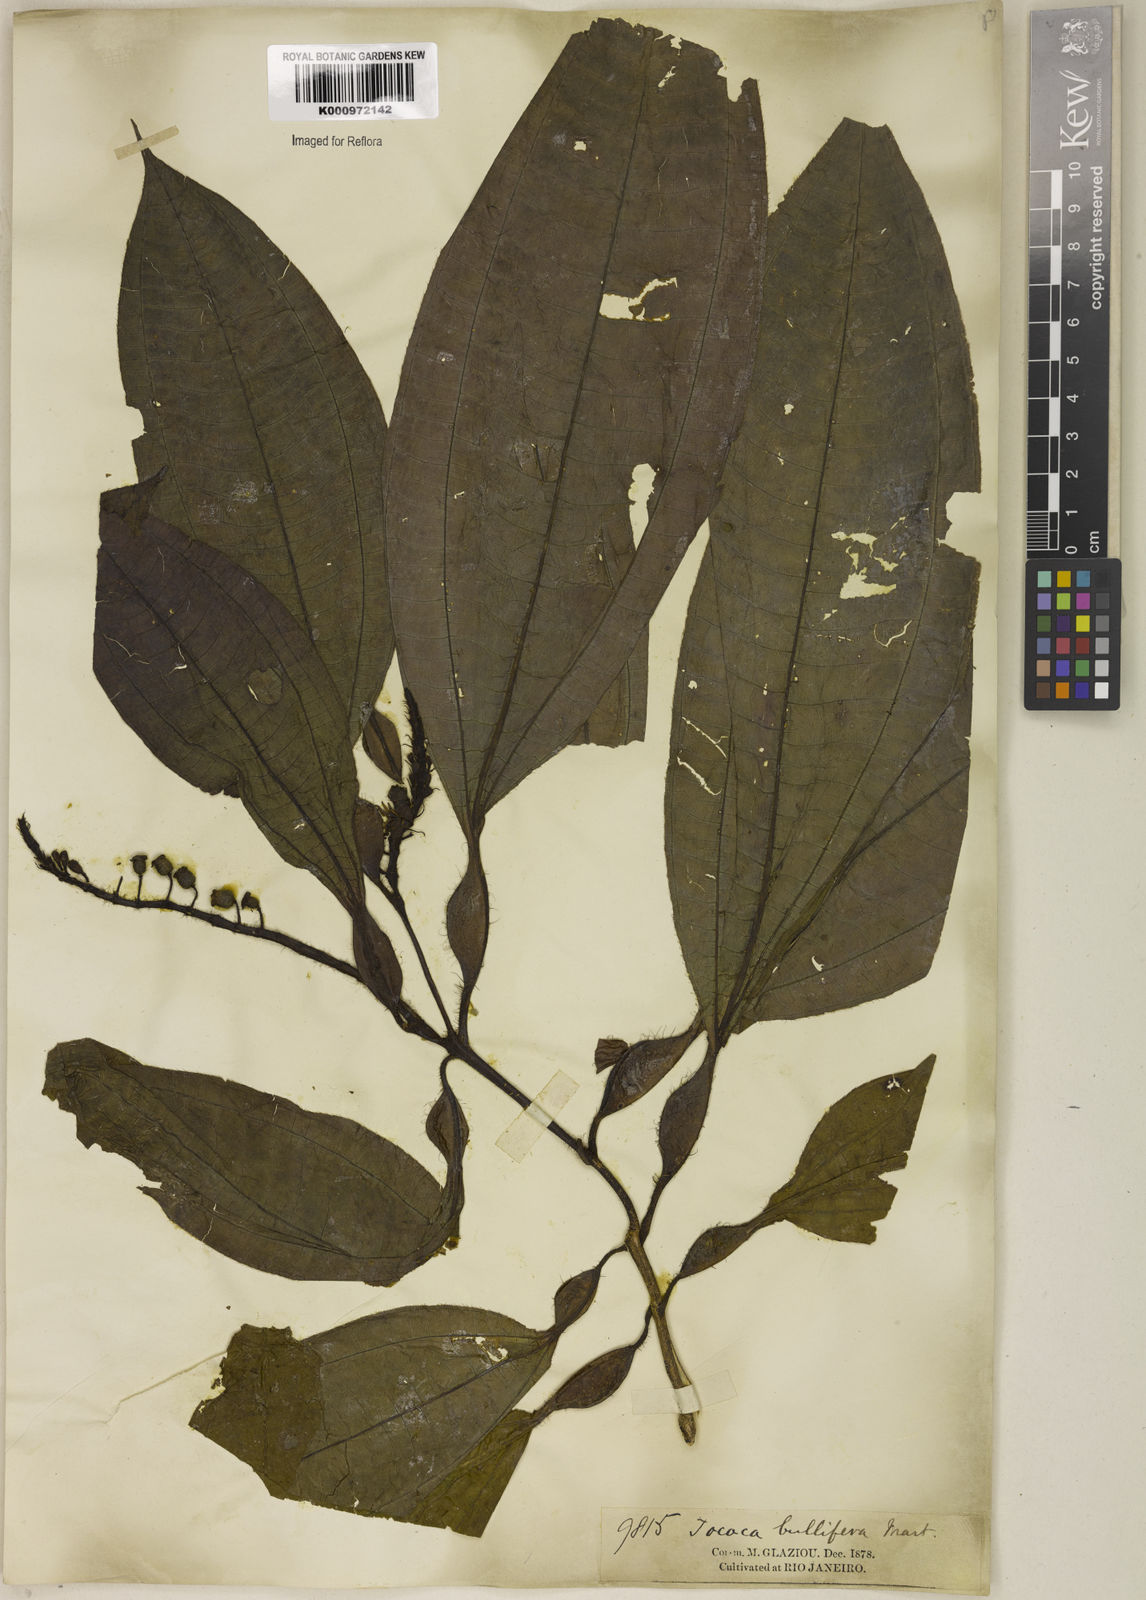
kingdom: Plantae
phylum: Tracheophyta
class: Magnoliopsida
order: Myrtales
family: Melastomataceae
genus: Miconia
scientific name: Miconia bullifera
